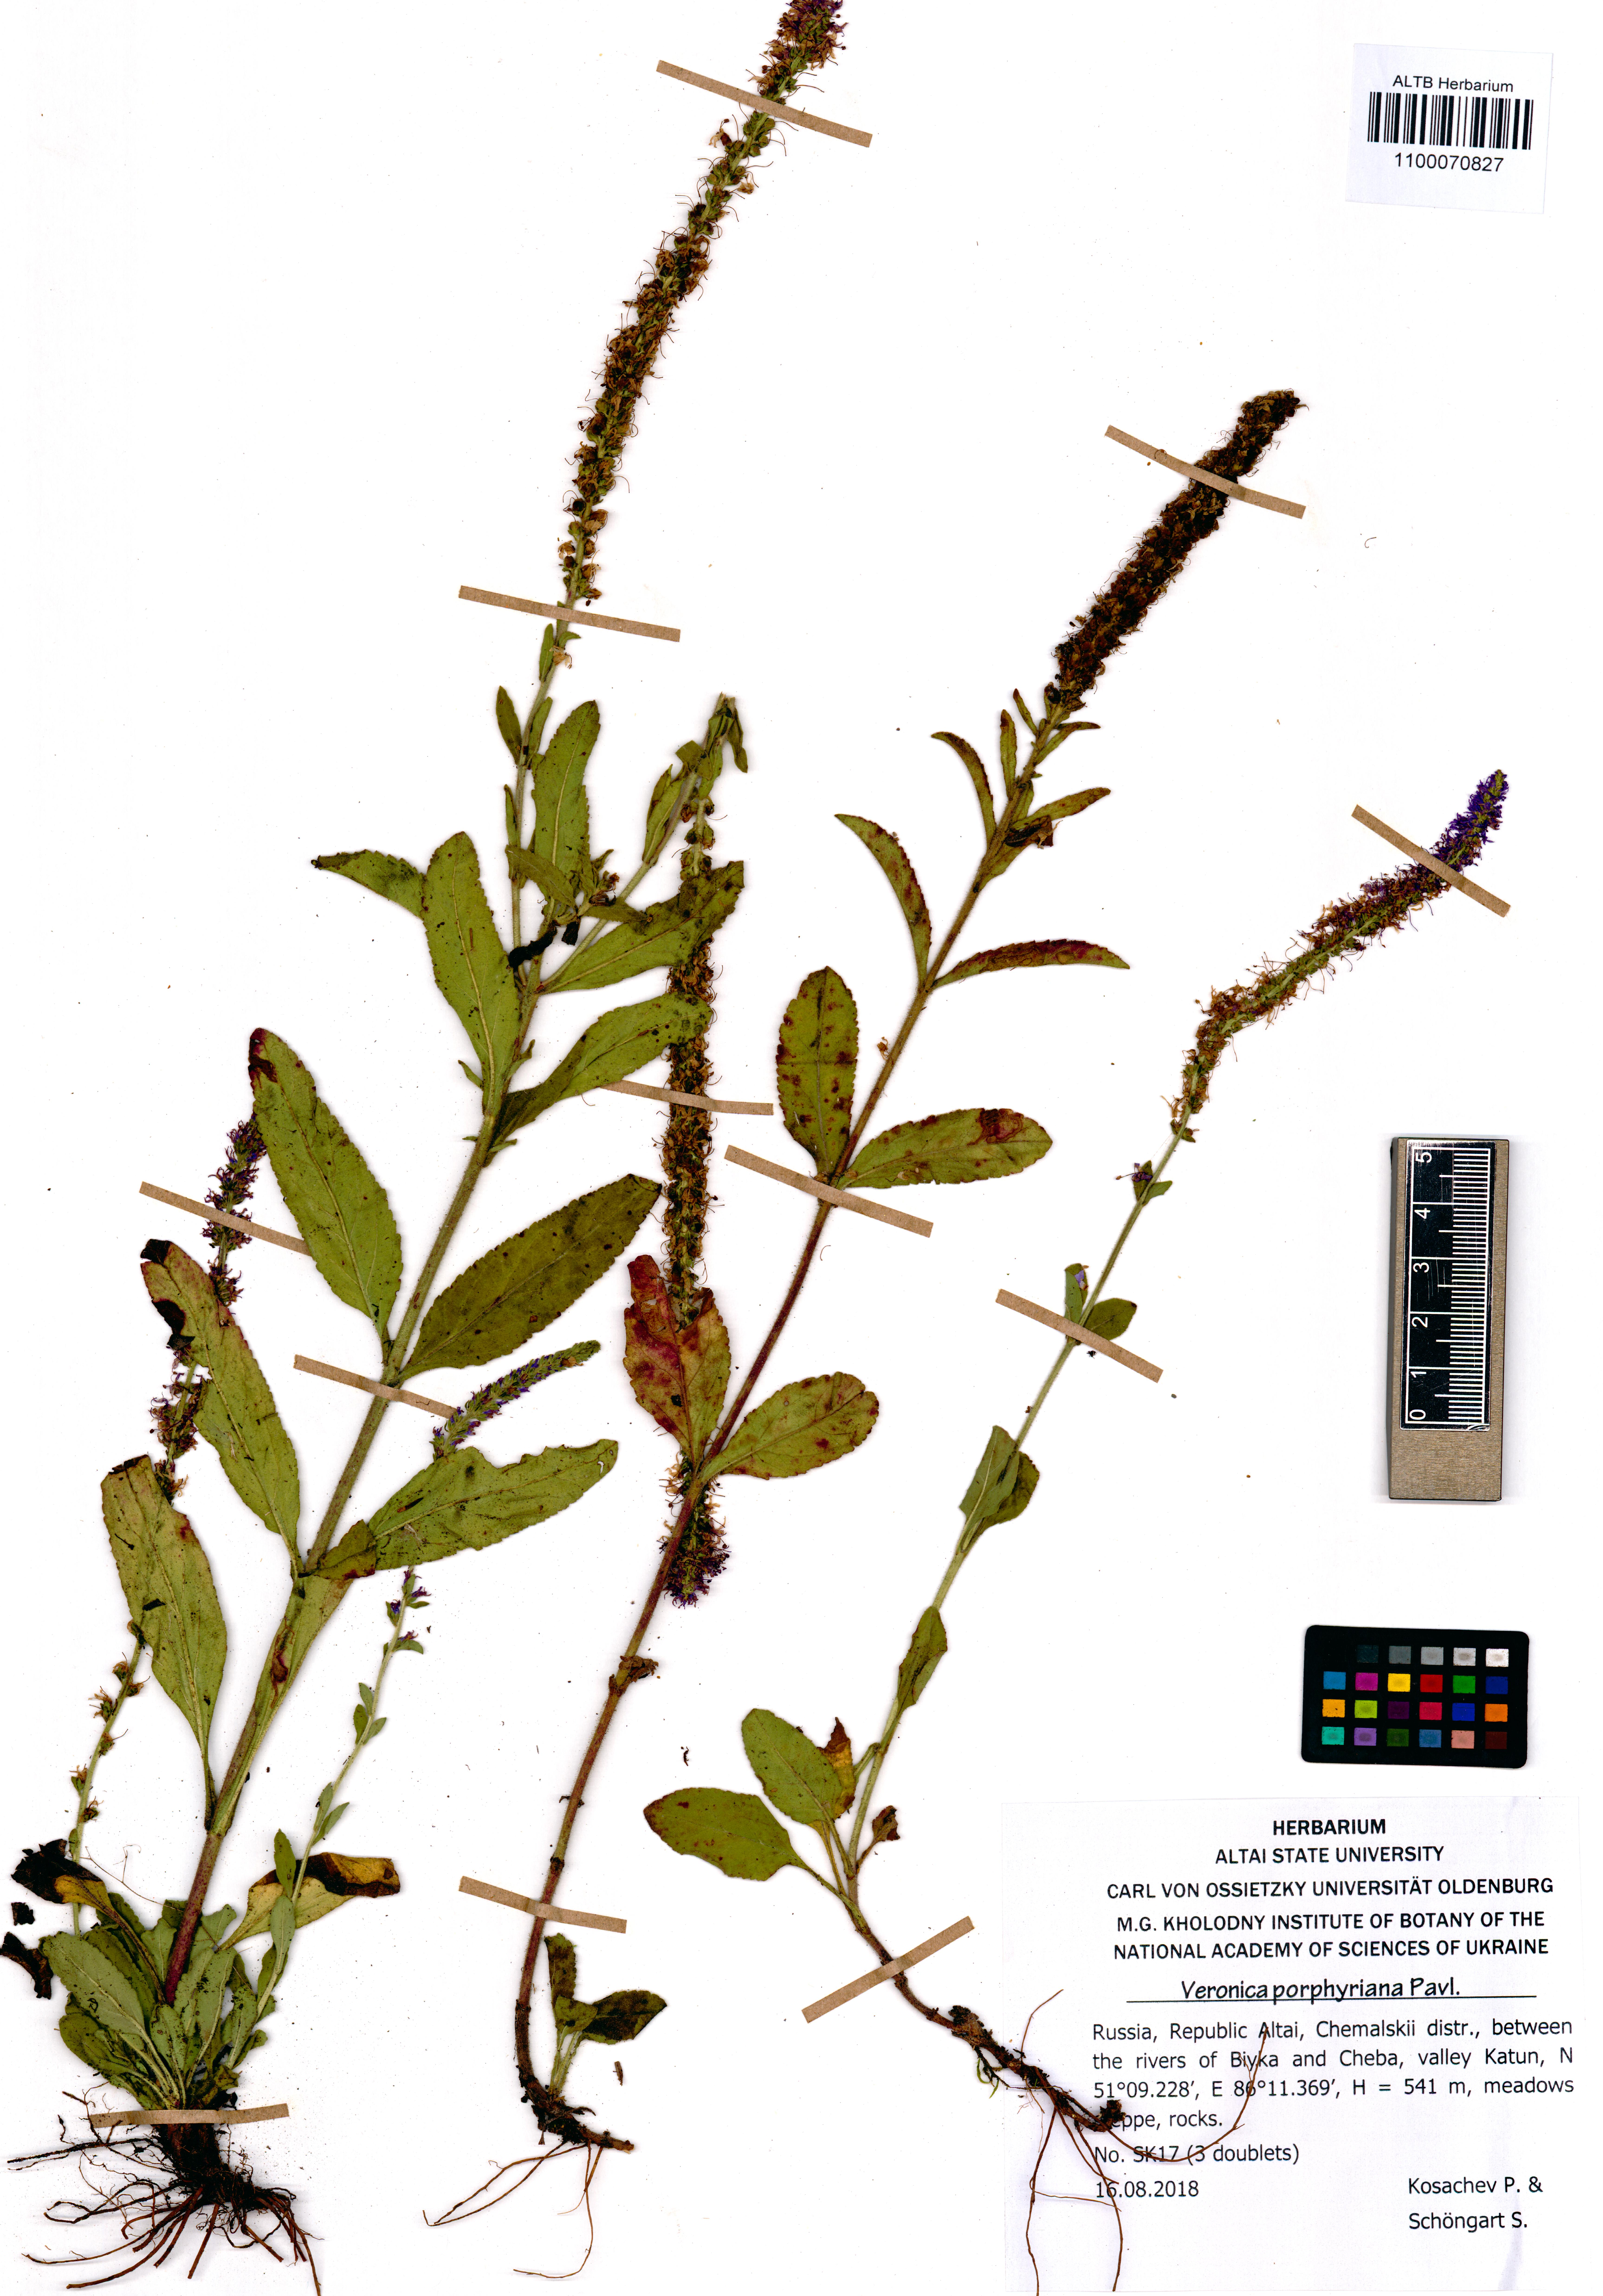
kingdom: Plantae
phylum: Tracheophyta
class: Magnoliopsida
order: Lamiales
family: Plantaginaceae
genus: Veronica
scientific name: Veronica porphyriana
